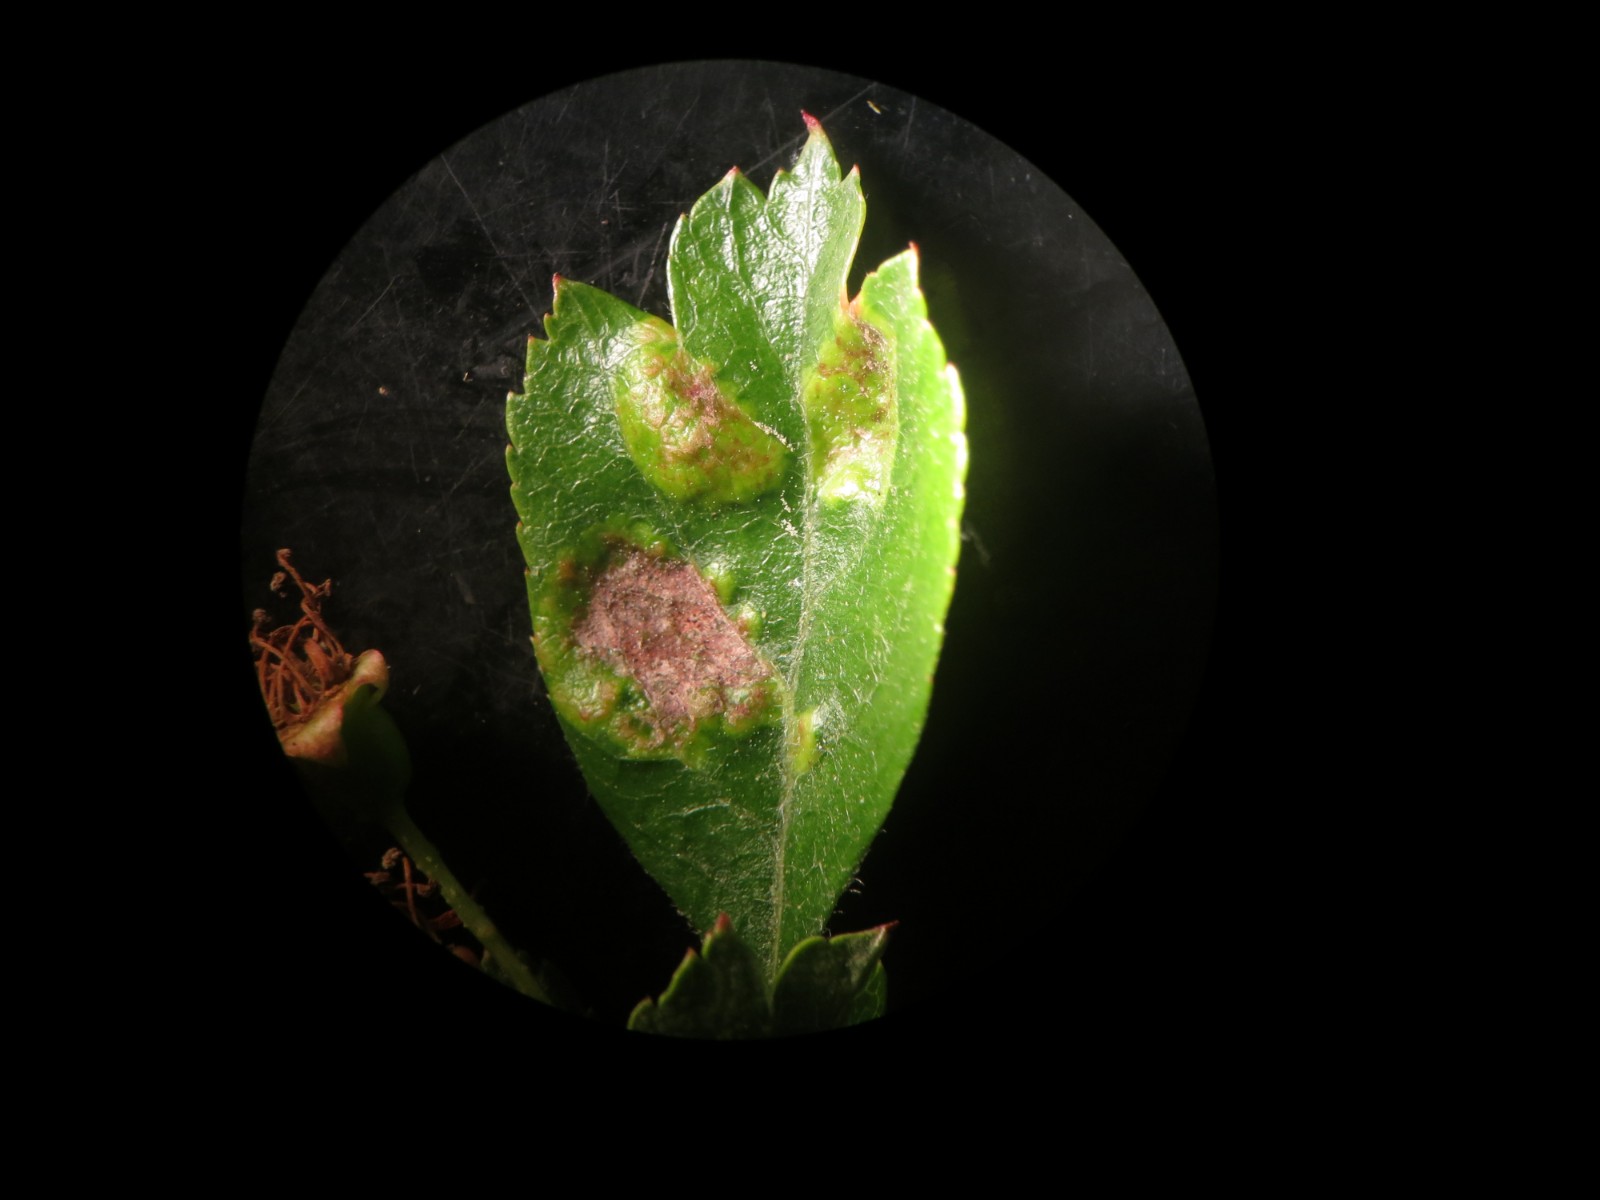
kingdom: Fungi
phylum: Ascomycota
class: Taphrinomycetes
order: Taphrinales
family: Taphrinaceae
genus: Taphrina
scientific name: Taphrina crataegi
